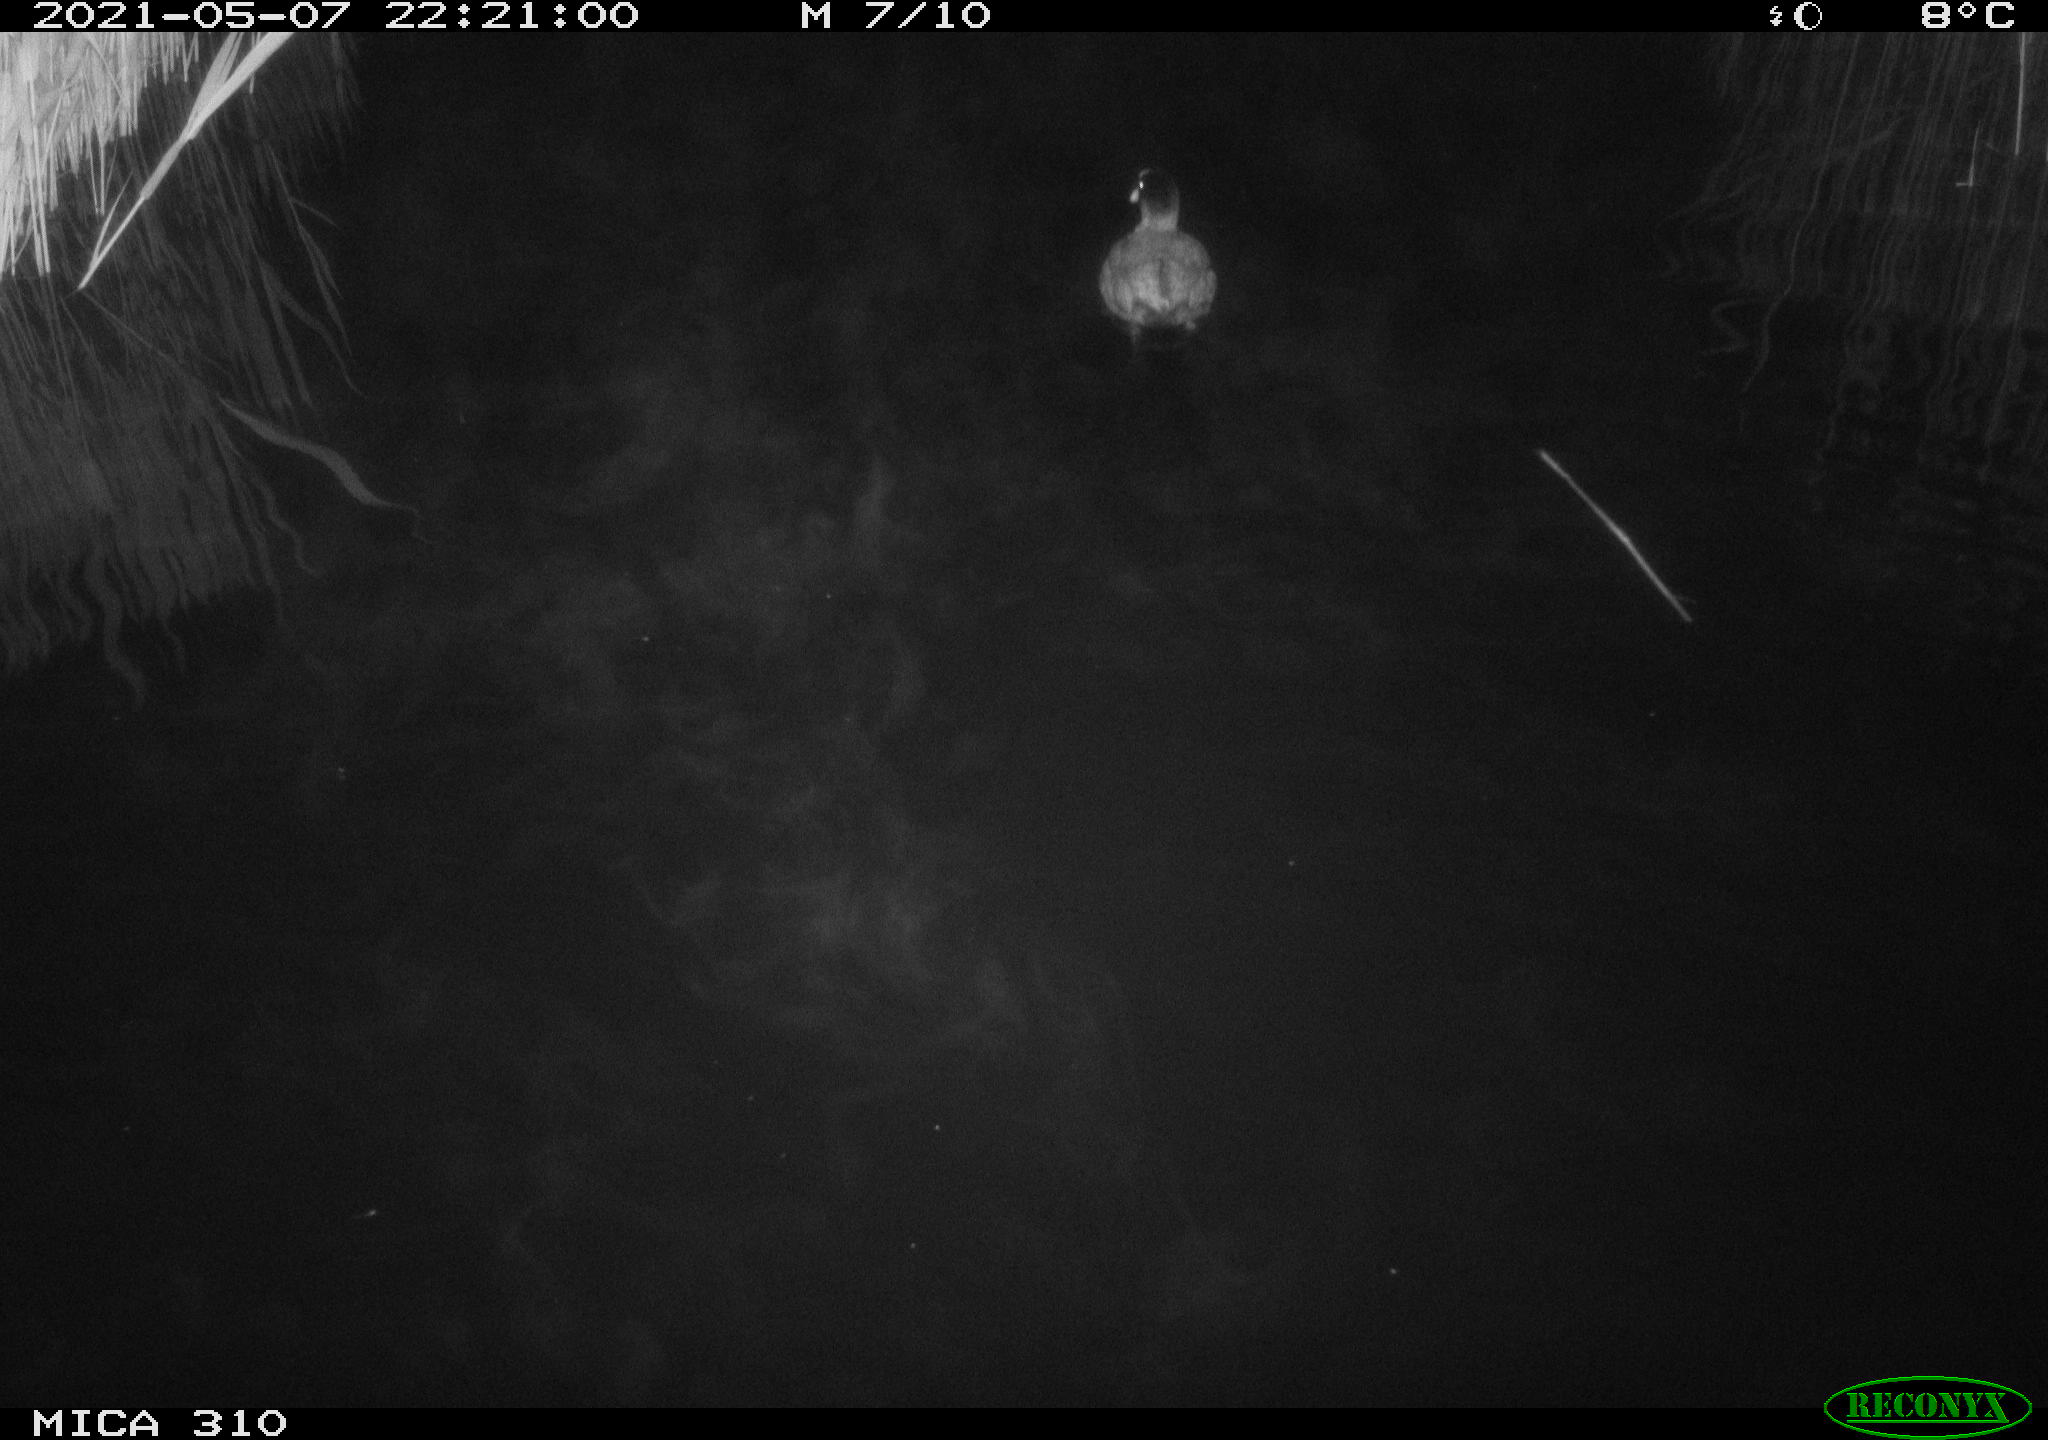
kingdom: Animalia
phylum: Chordata
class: Aves
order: Gruiformes
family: Rallidae
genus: Gallinula
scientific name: Gallinula chloropus
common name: Common moorhen
